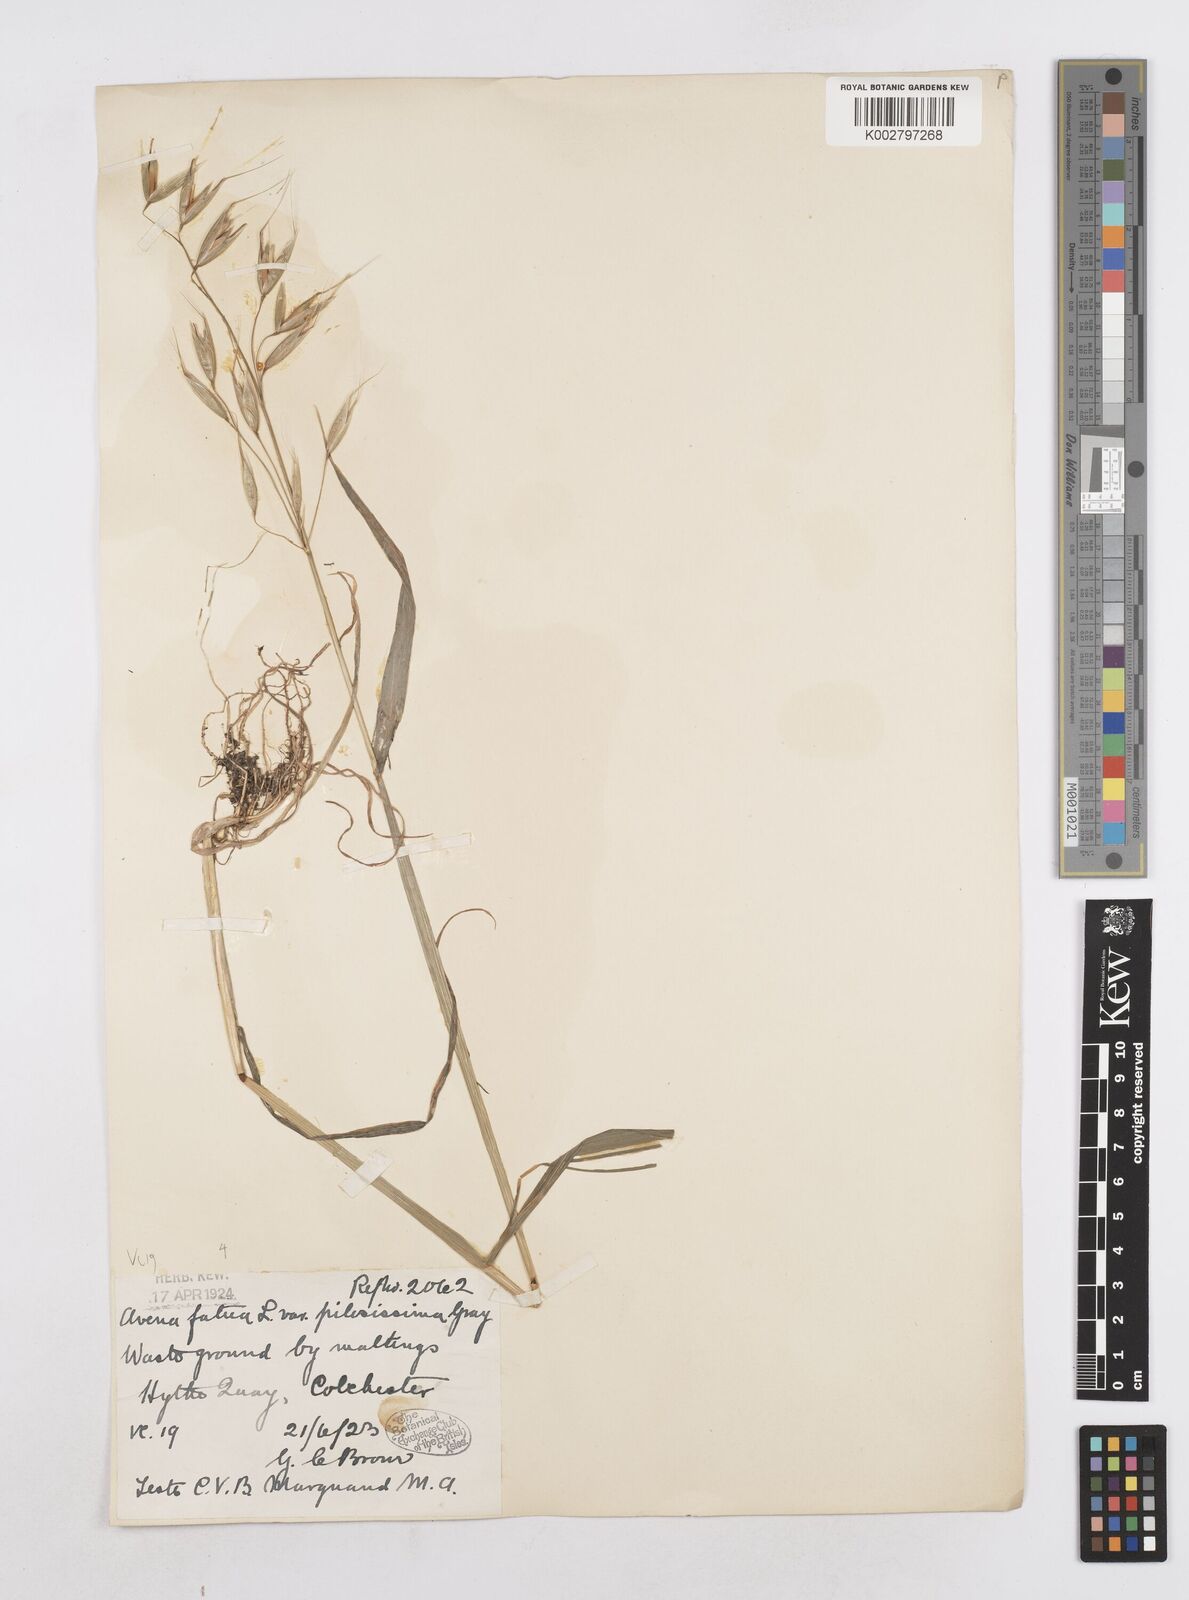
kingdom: Plantae
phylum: Tracheophyta
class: Liliopsida
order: Poales
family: Poaceae
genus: Avena
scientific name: Avena fatua
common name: Wild oat
